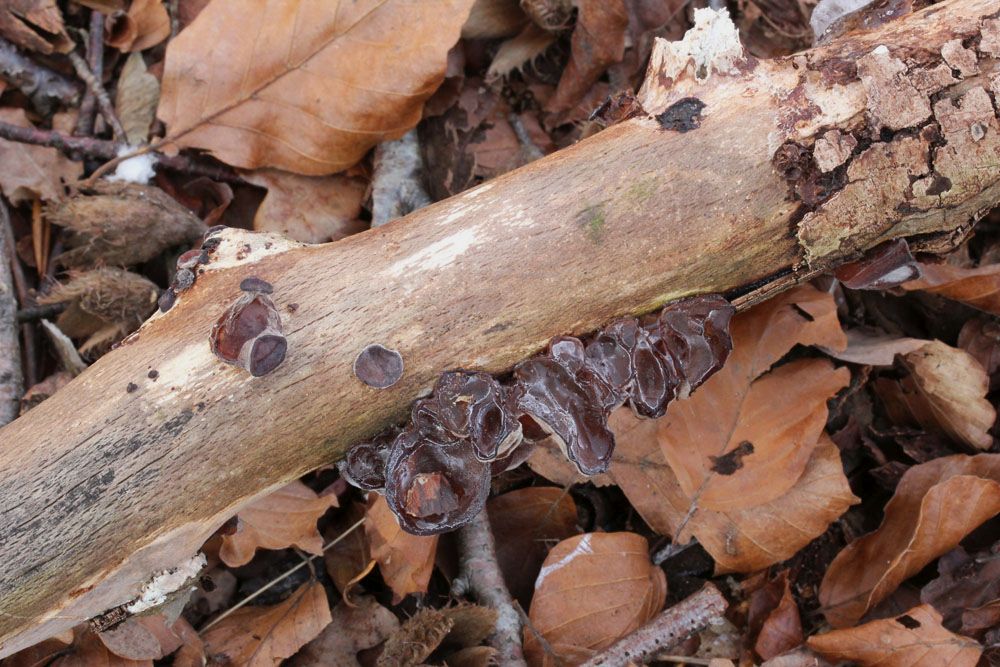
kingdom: Fungi
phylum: Basidiomycota
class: Agaricomycetes
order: Auriculariales
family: Auriculariaceae
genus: Auricularia
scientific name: Auricularia auricula-judae
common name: almindelig judasøre
